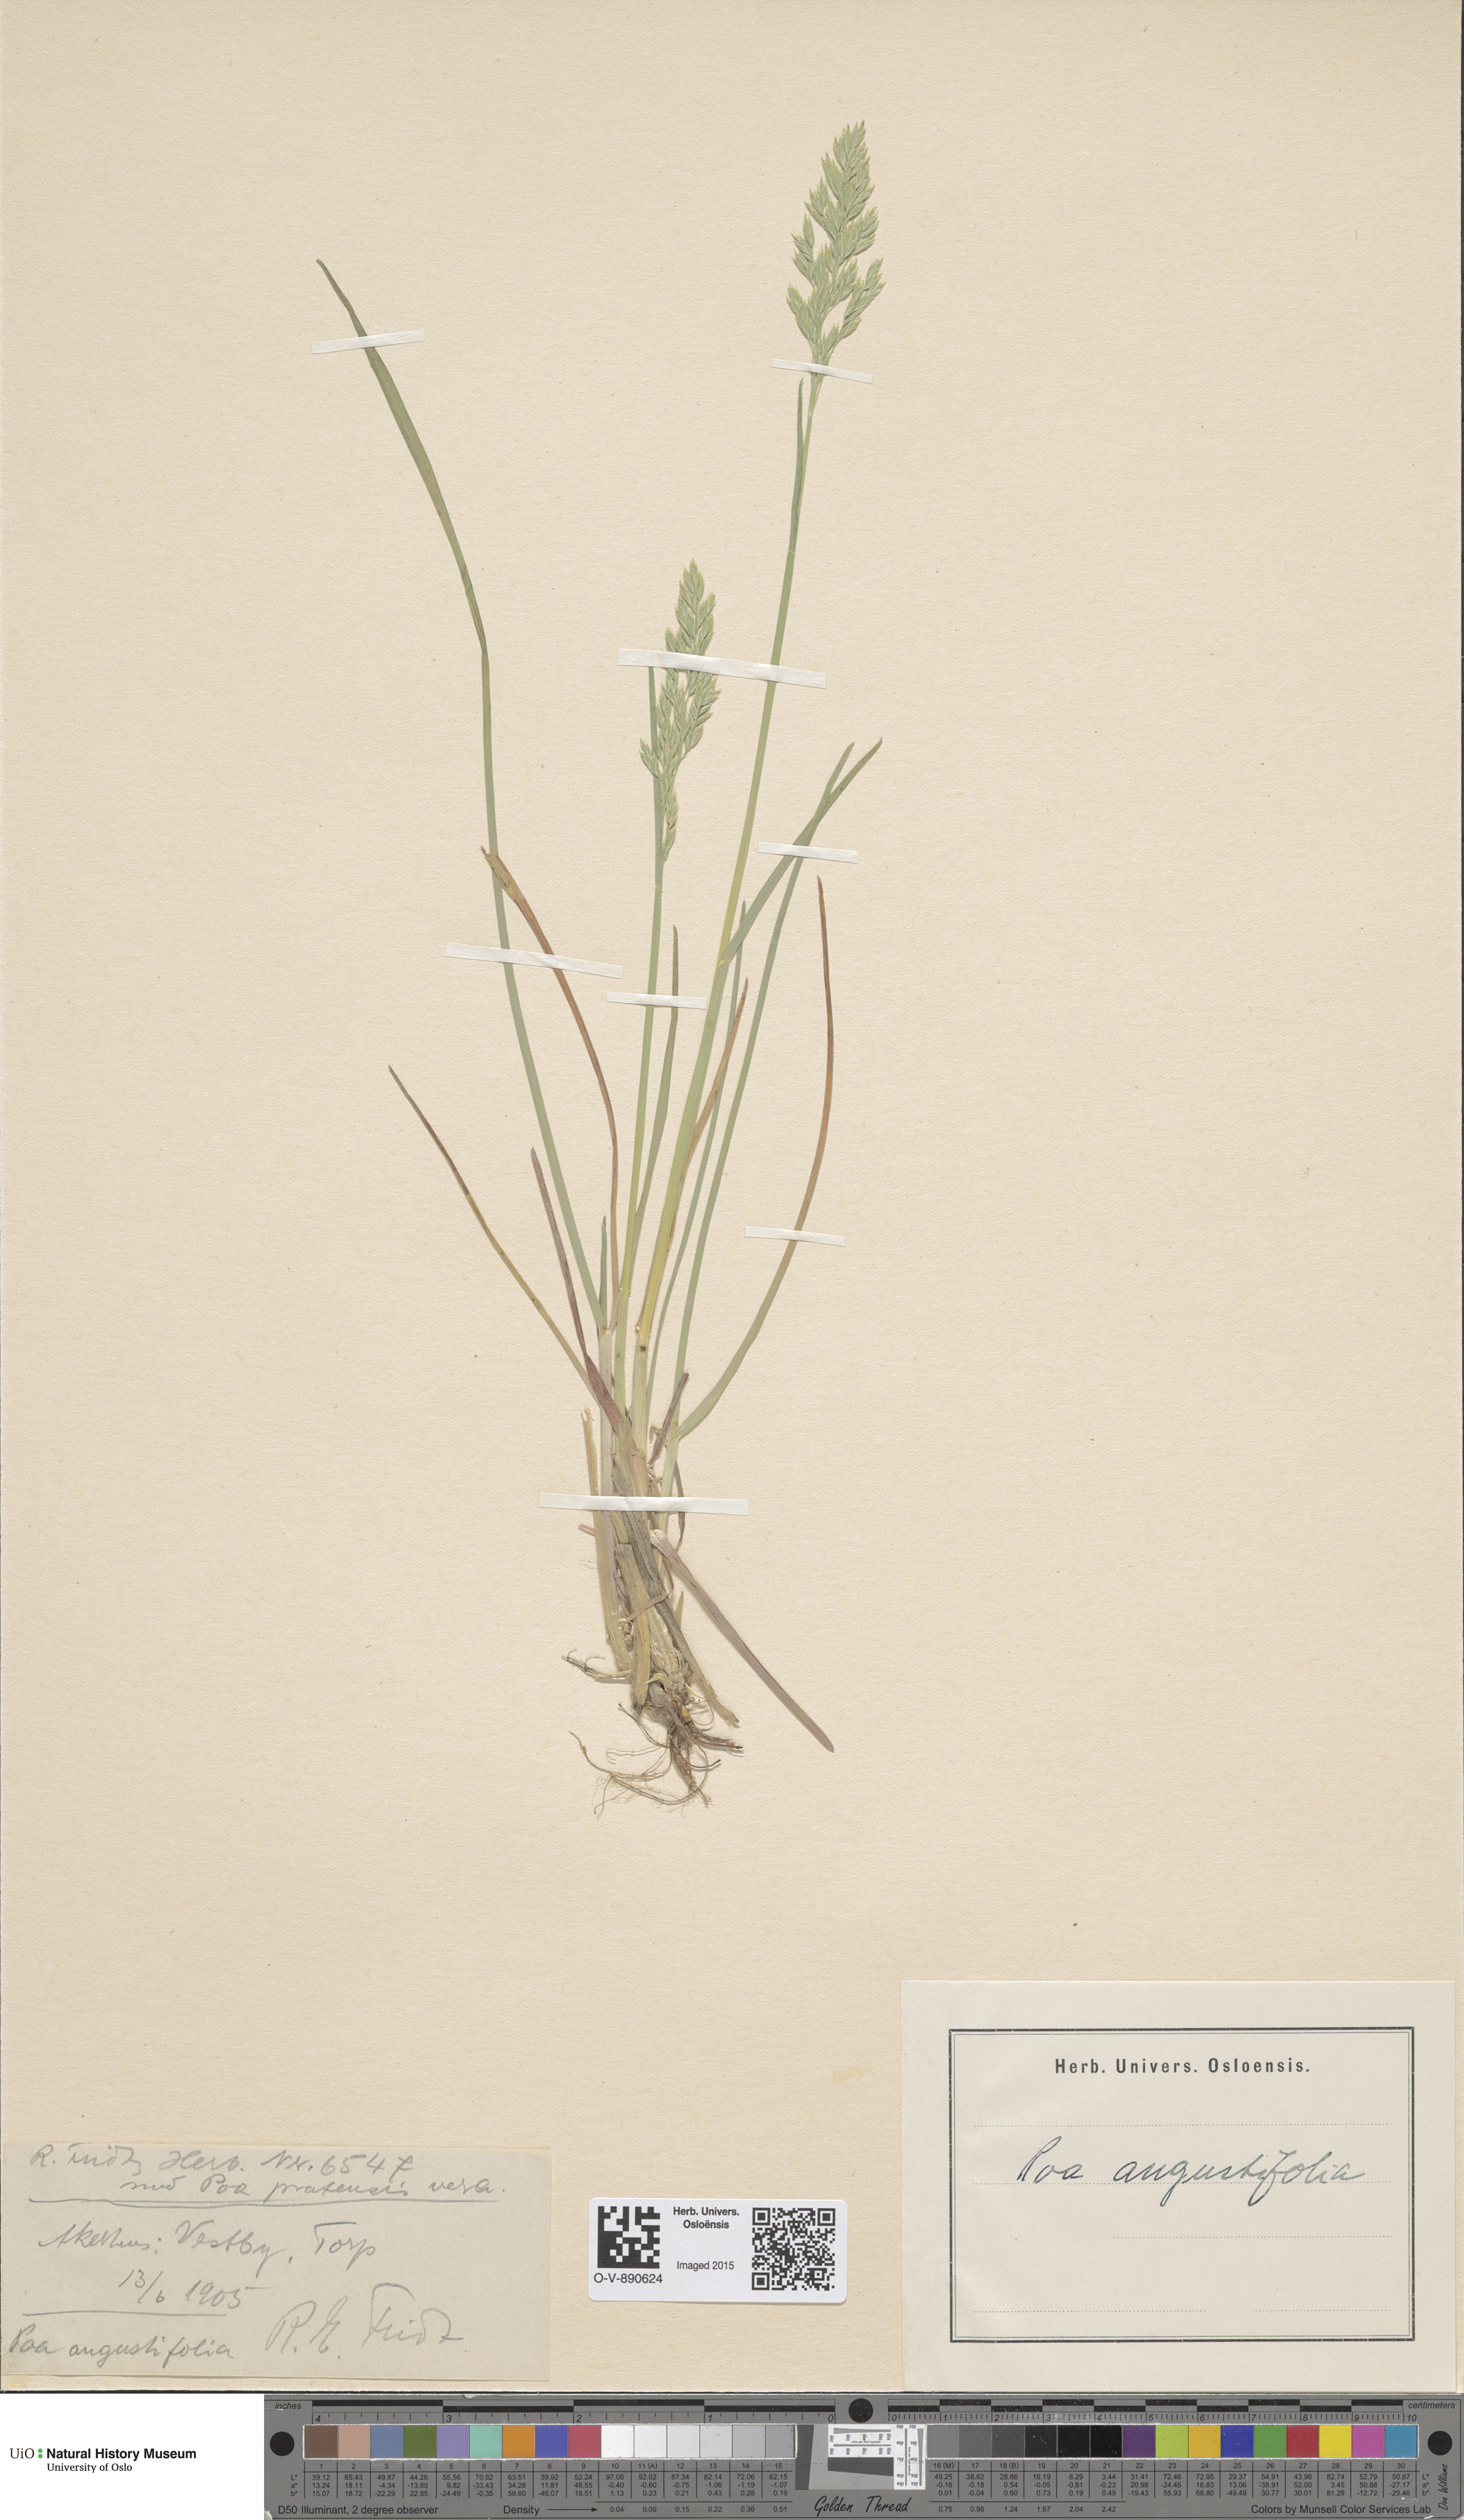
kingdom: Plantae
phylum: Tracheophyta
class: Liliopsida
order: Poales
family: Poaceae
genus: Poa
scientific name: Poa angustifolia
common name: Narrow-leaved meadow-grass
